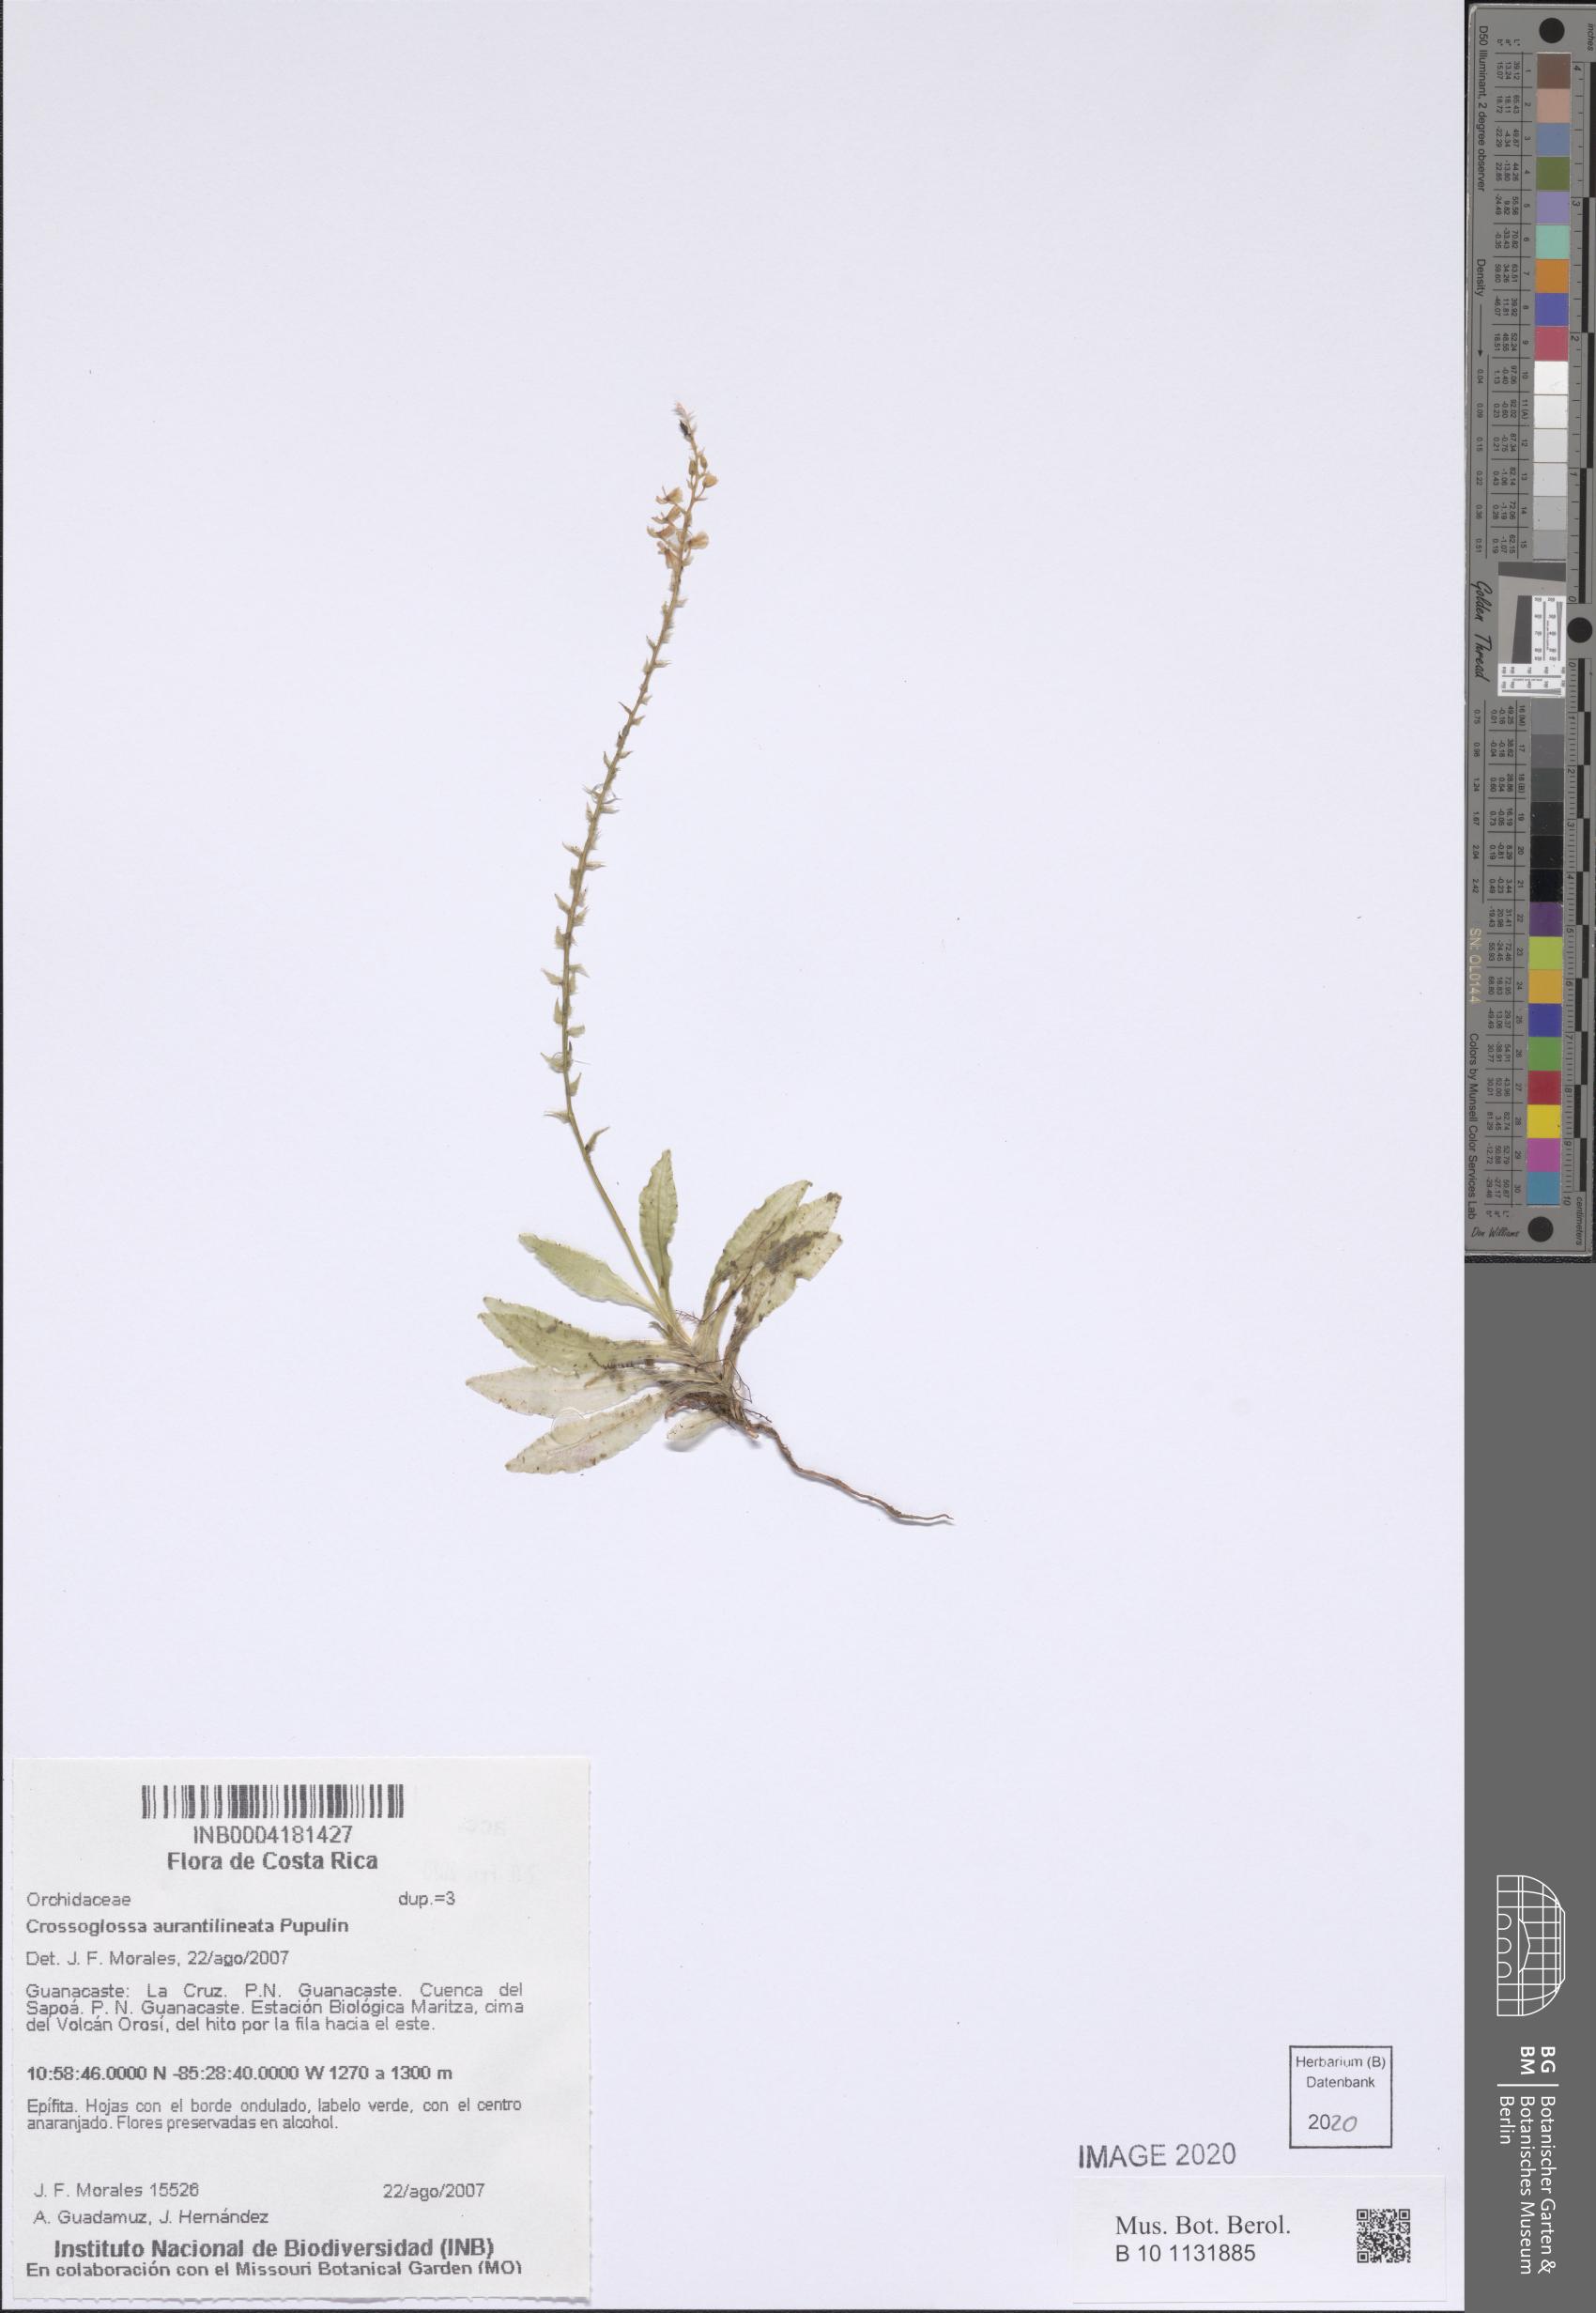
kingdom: Plantae
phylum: Tracheophyta
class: Liliopsida
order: Asparagales
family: Orchidaceae
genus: Crossoglossa
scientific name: Crossoglossa aurantiilineata
